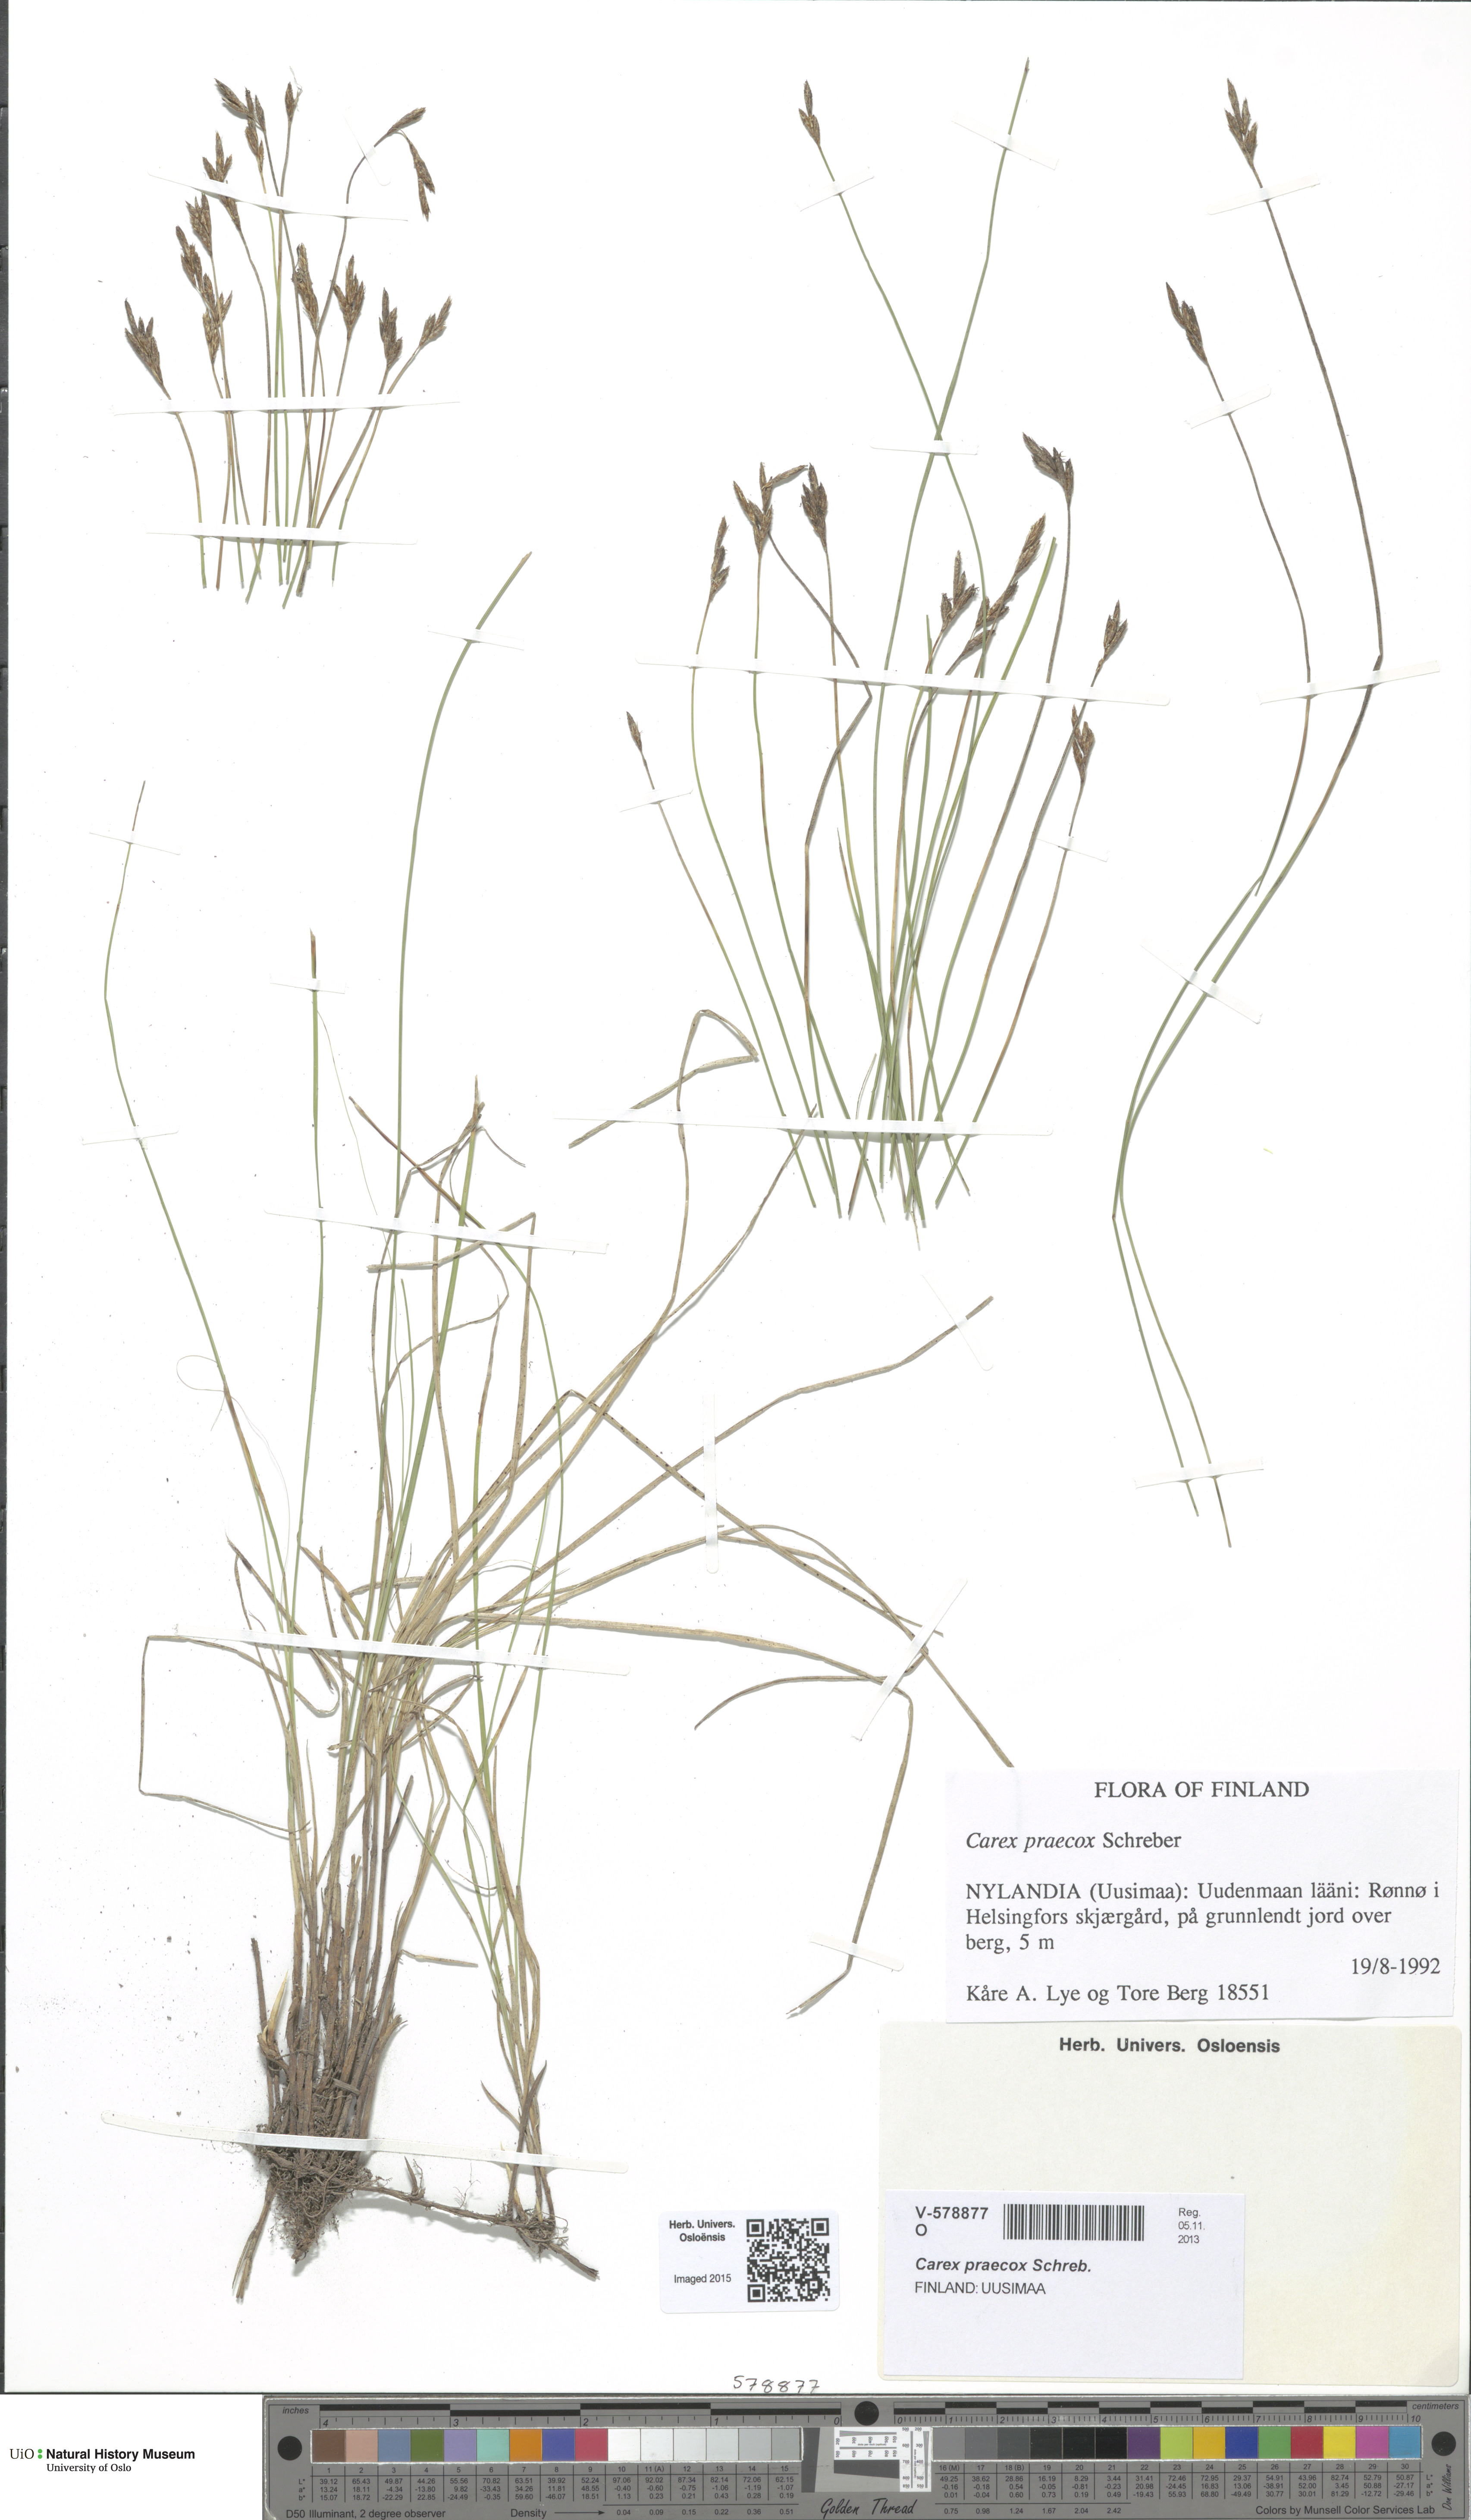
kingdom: Plantae
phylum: Tracheophyta
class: Liliopsida
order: Poales
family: Cyperaceae
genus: Carex
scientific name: Carex praecox
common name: Early sedge
